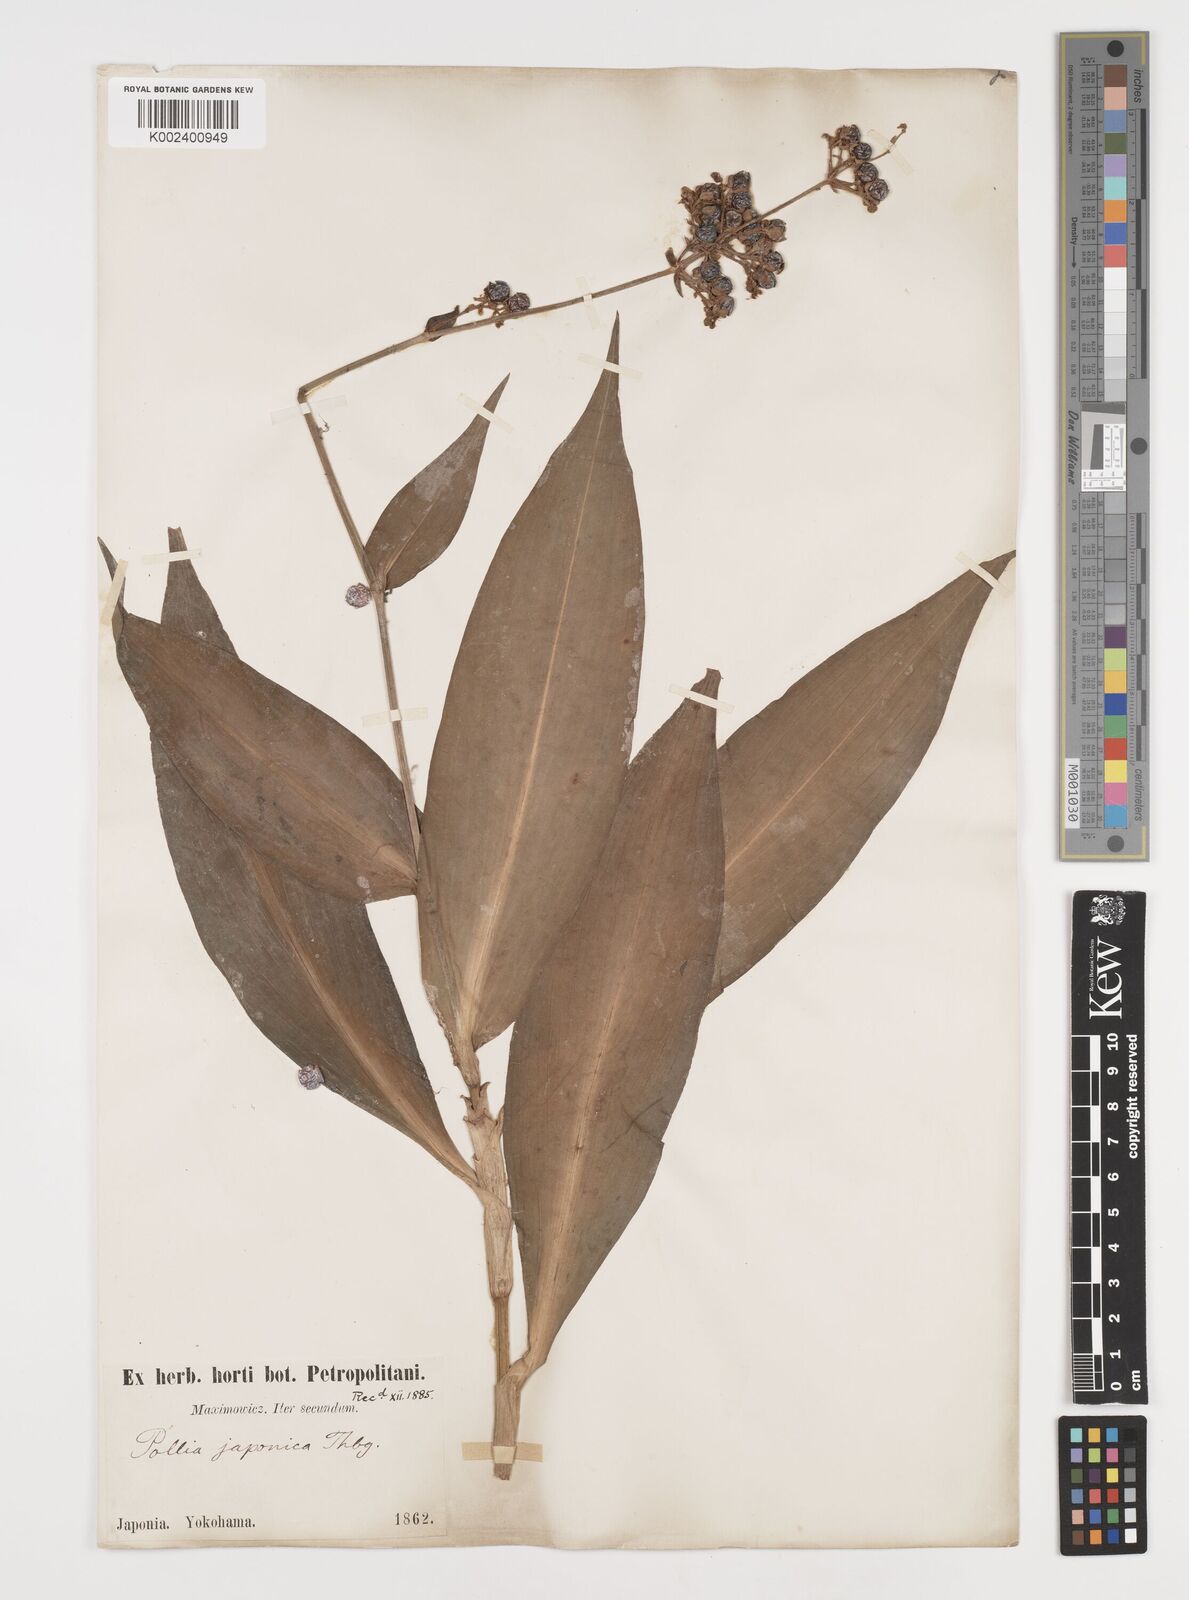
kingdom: Plantae
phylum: Tracheophyta
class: Liliopsida
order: Commelinales
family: Commelinaceae
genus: Pollia
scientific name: Pollia japonica
